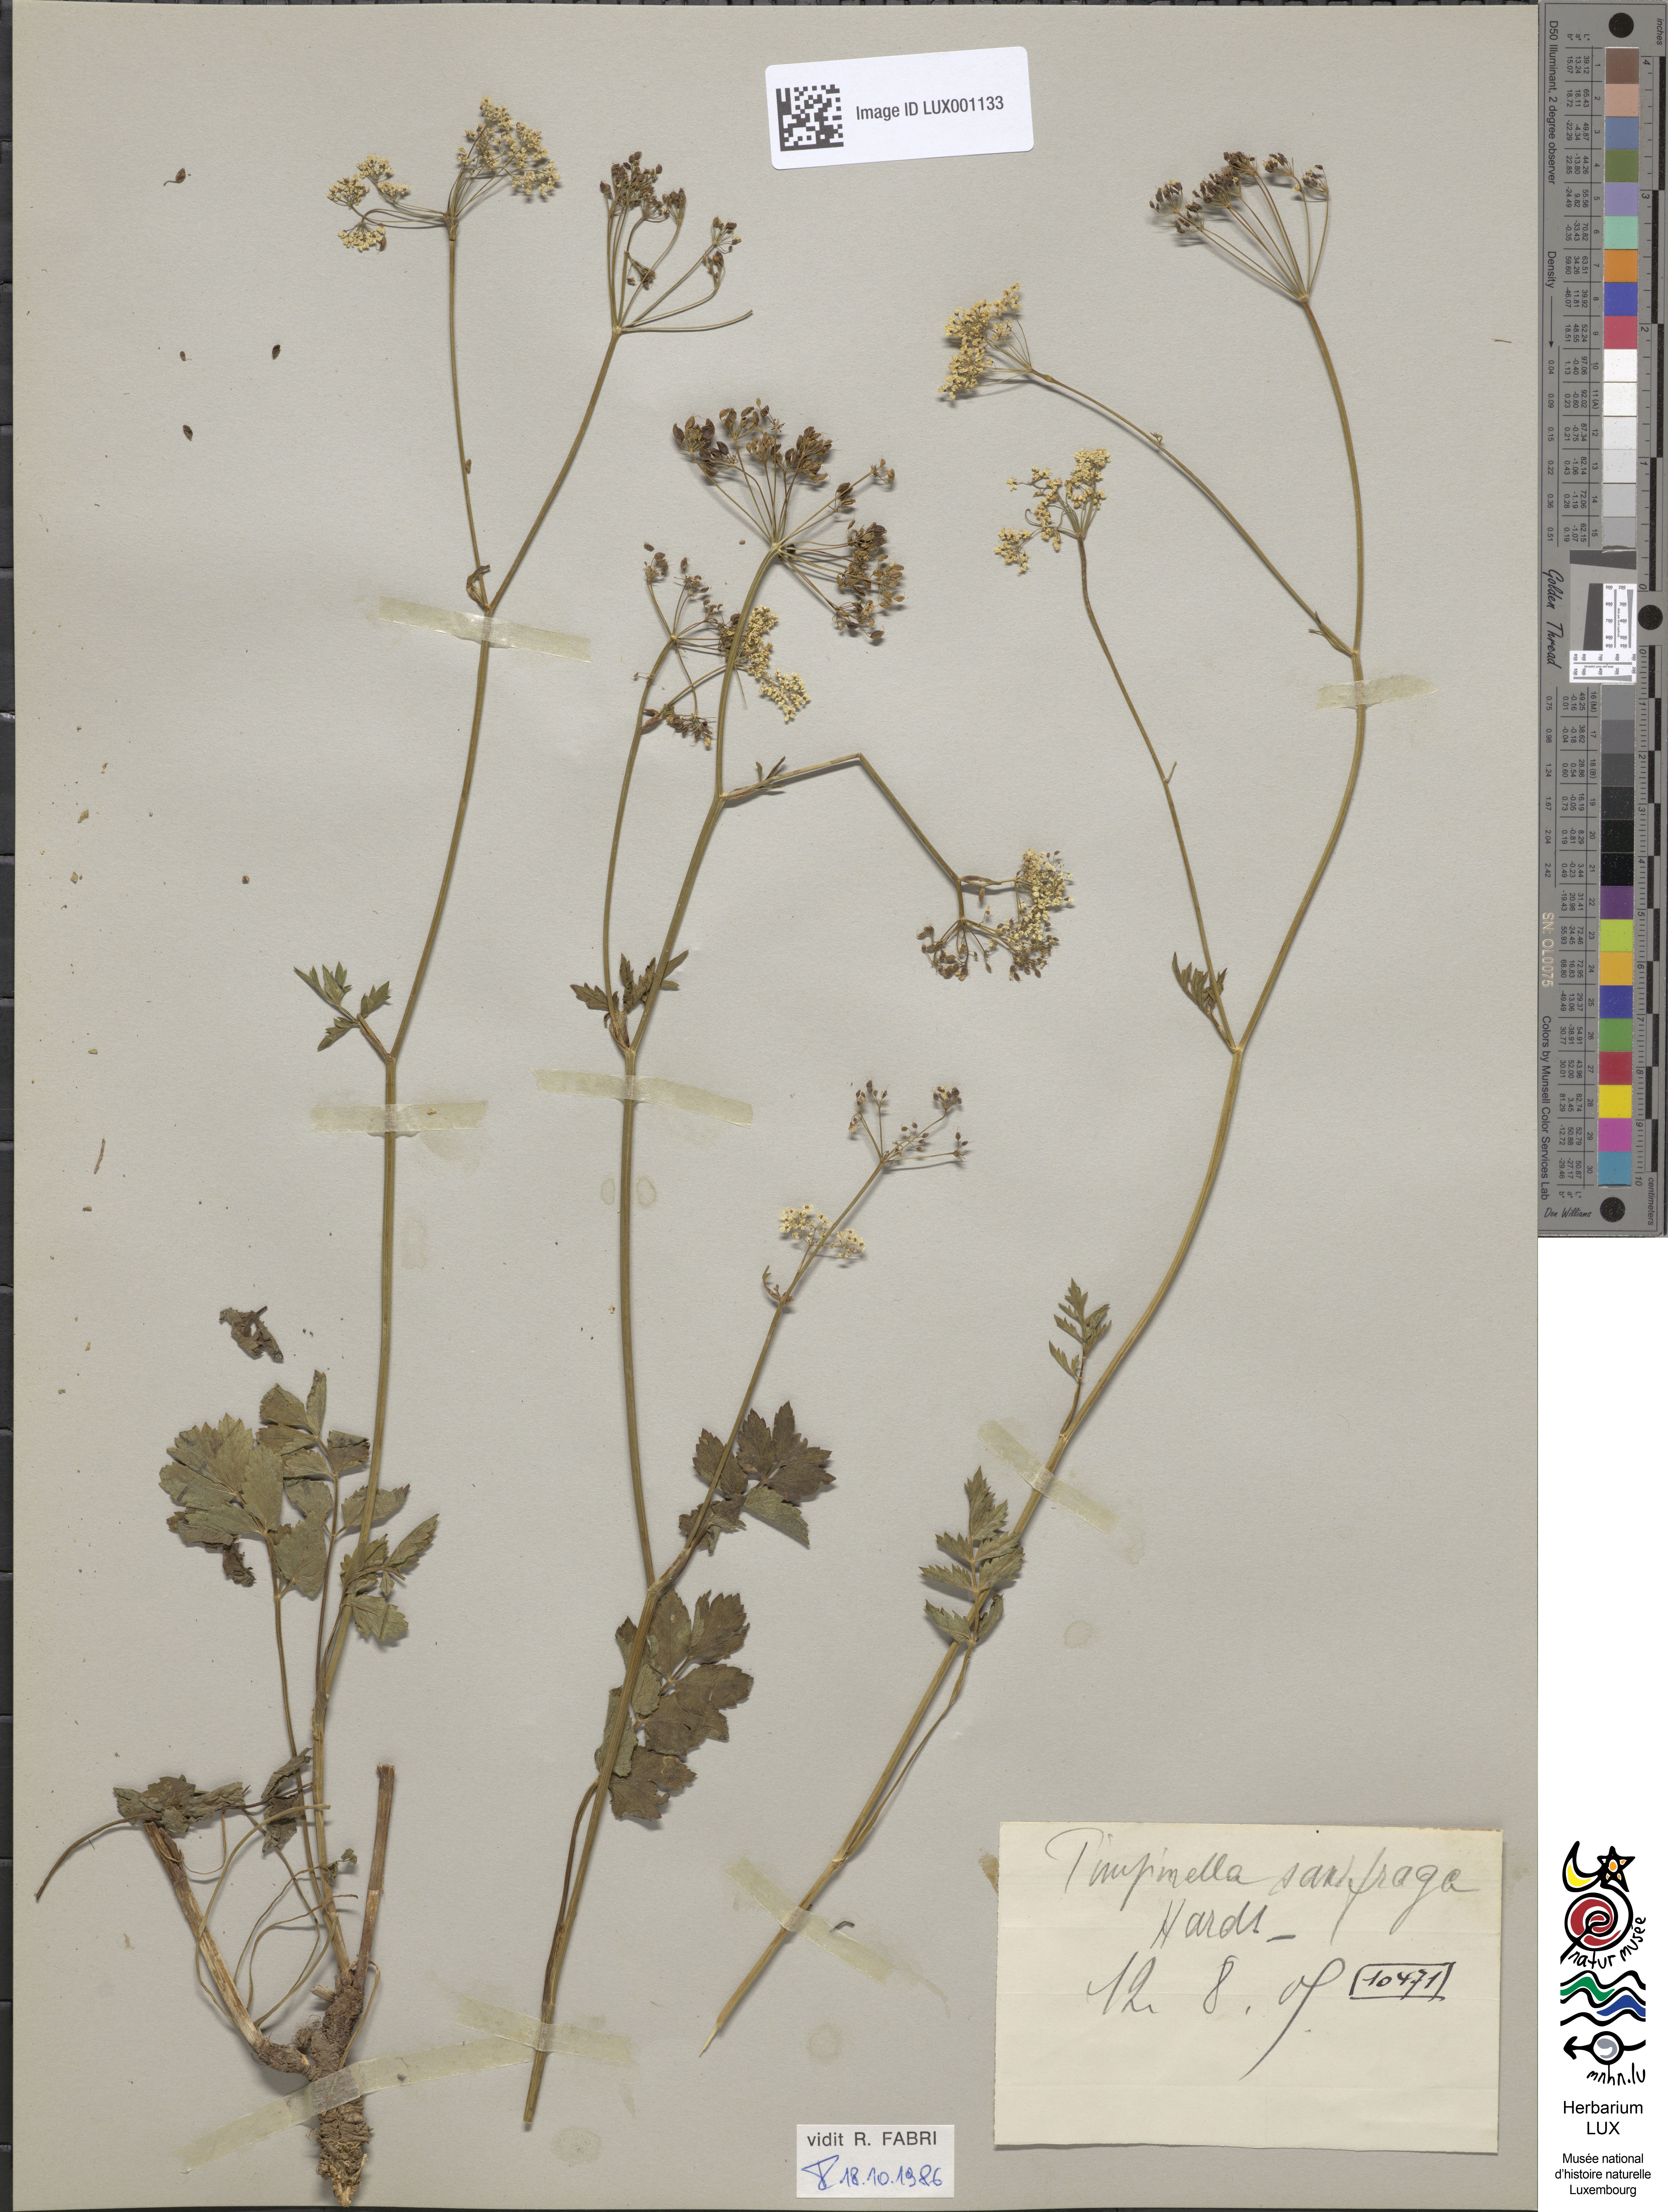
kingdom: Plantae
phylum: Tracheophyta
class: Magnoliopsida
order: Apiales
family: Apiaceae
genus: Pimpinella
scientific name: Pimpinella saxifraga
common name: Burnet-saxifrage
